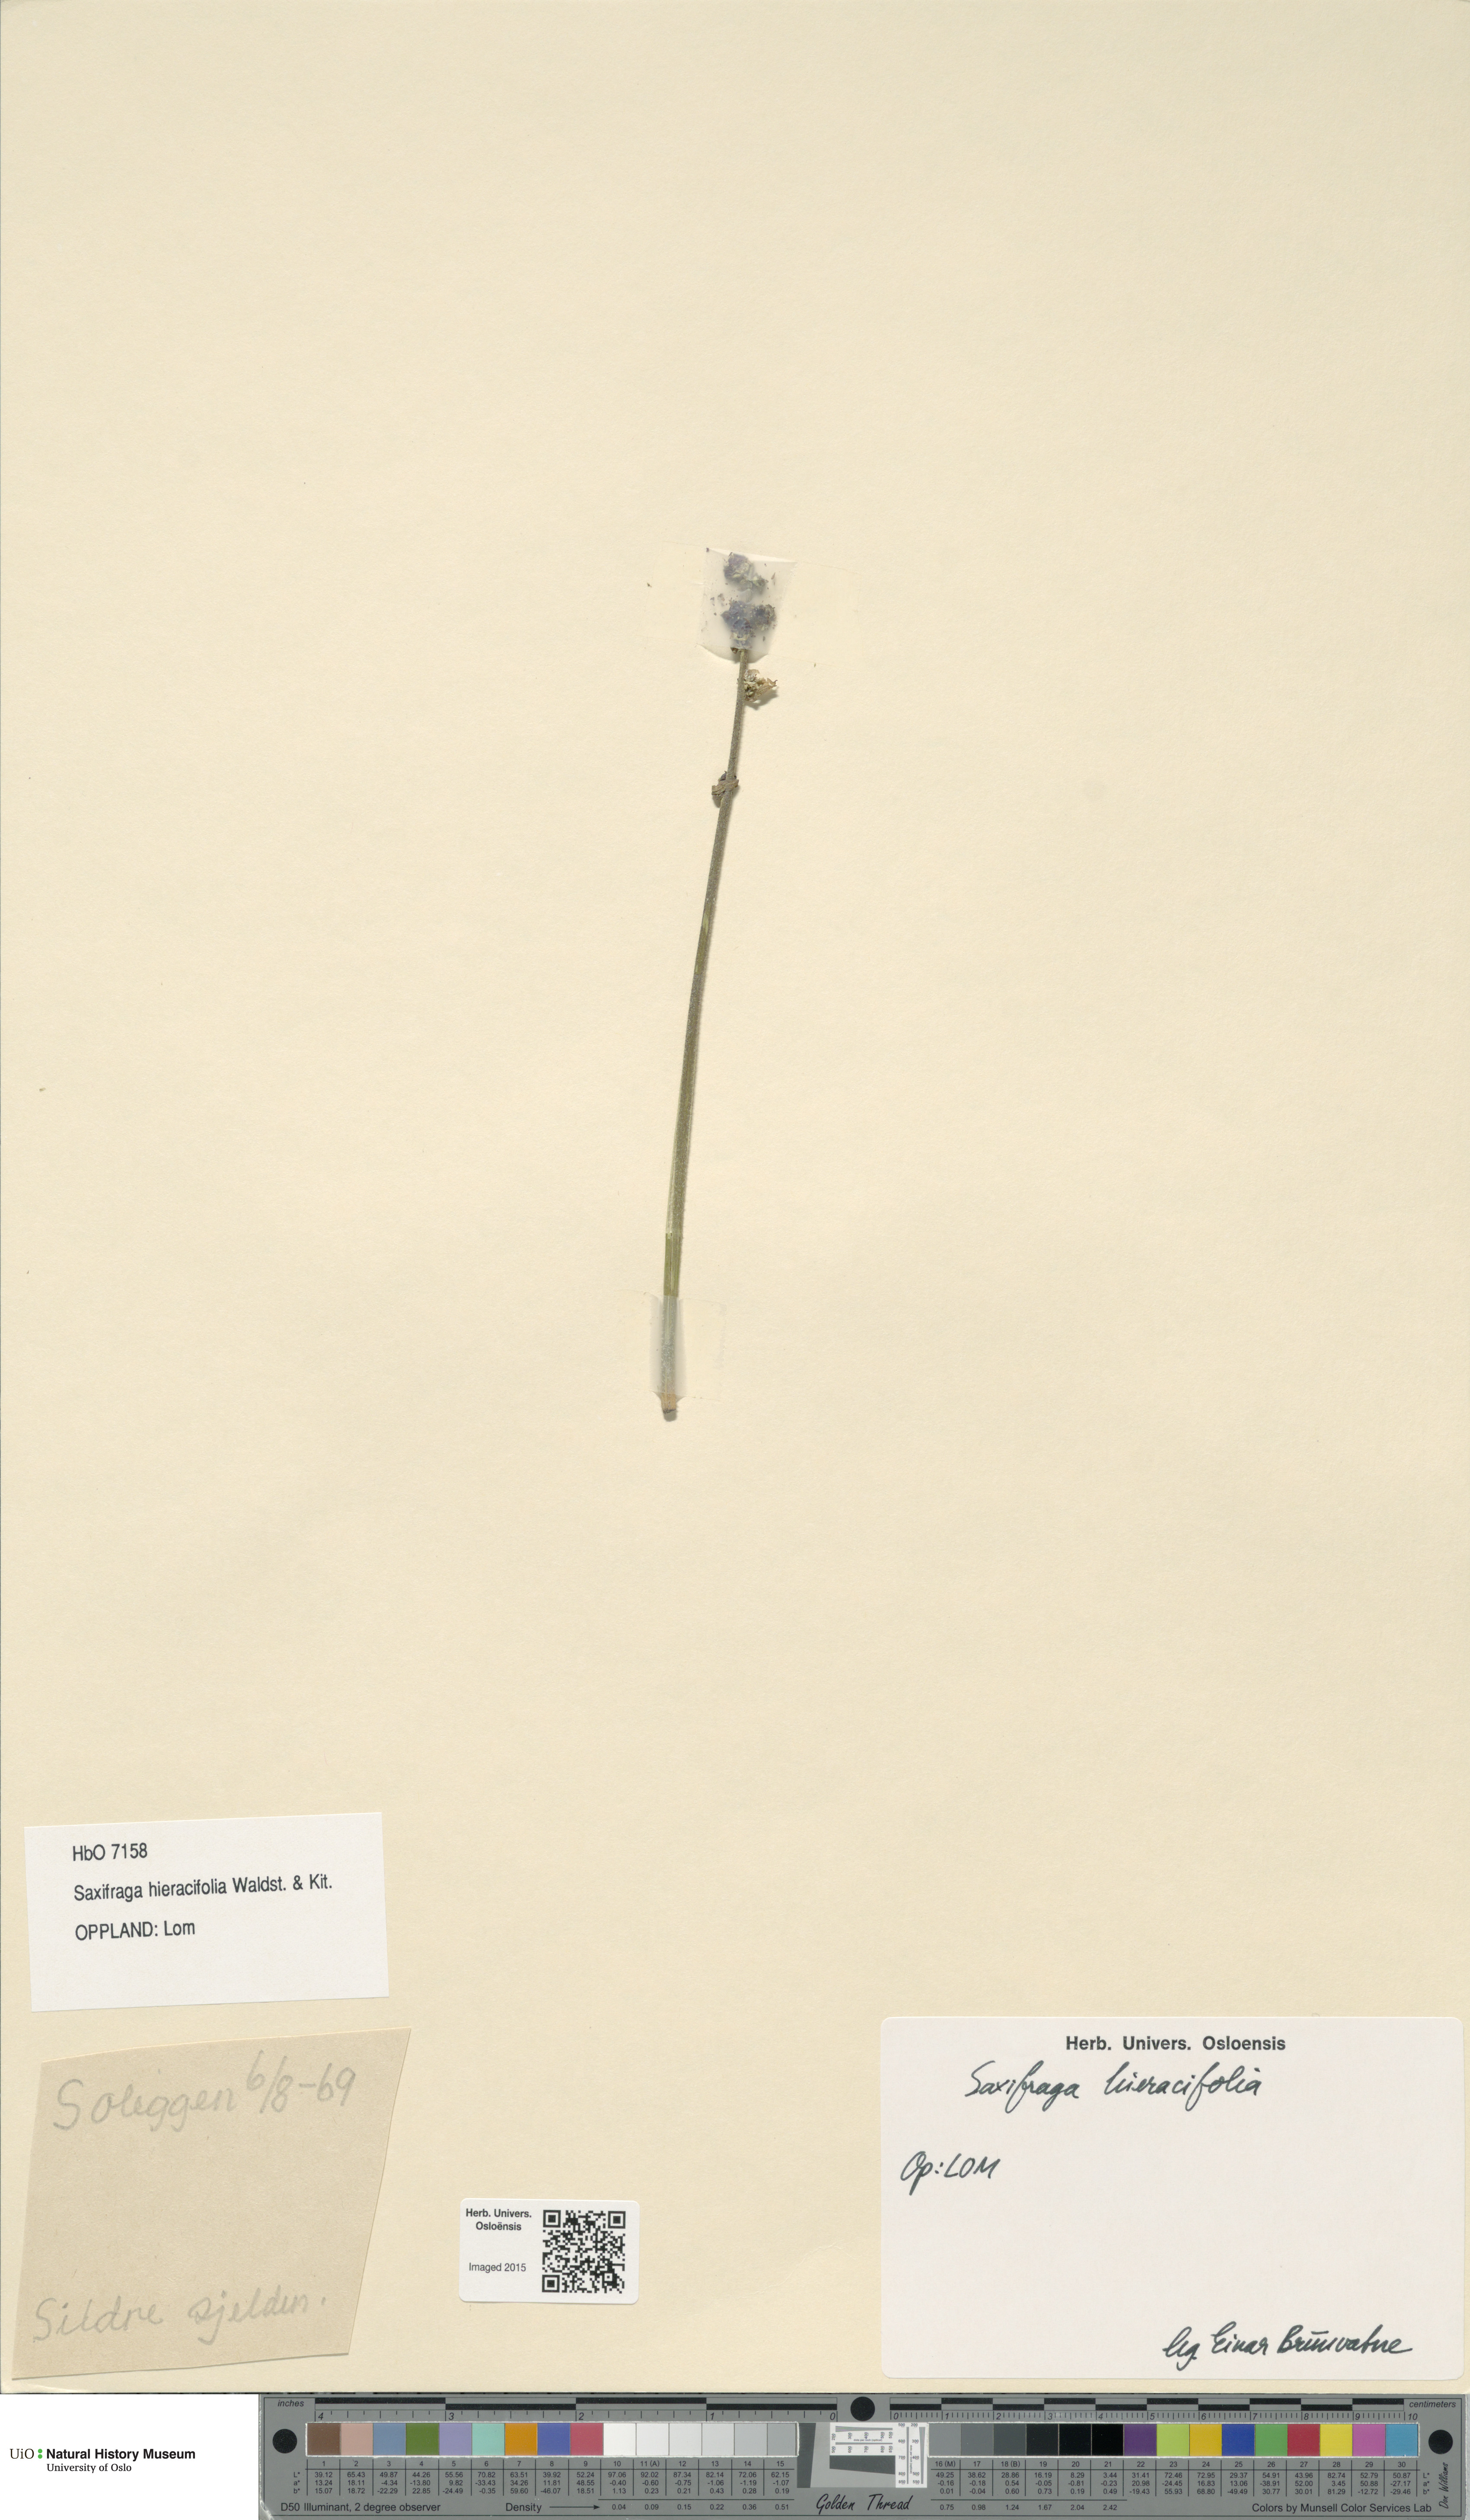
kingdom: Plantae
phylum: Tracheophyta
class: Magnoliopsida
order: Saxifragales
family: Saxifragaceae
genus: Micranthes
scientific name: Micranthes hieraciifolia
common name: Hawkweed-leaved saxifrage
